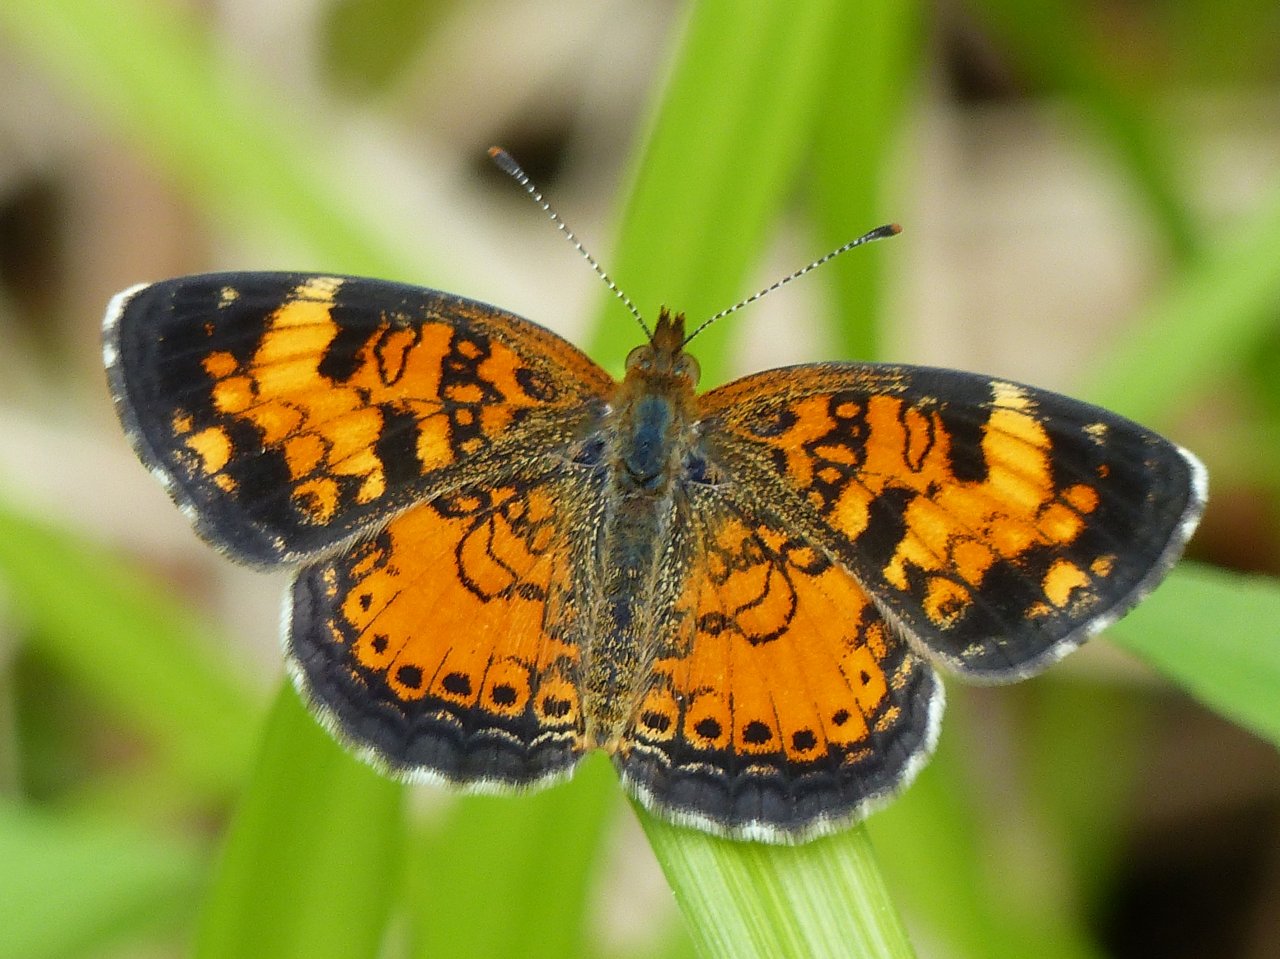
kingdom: Animalia
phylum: Arthropoda
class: Insecta
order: Lepidoptera
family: Nymphalidae
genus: Phyciodes
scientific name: Phyciodes tharos
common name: Northern Crescent
